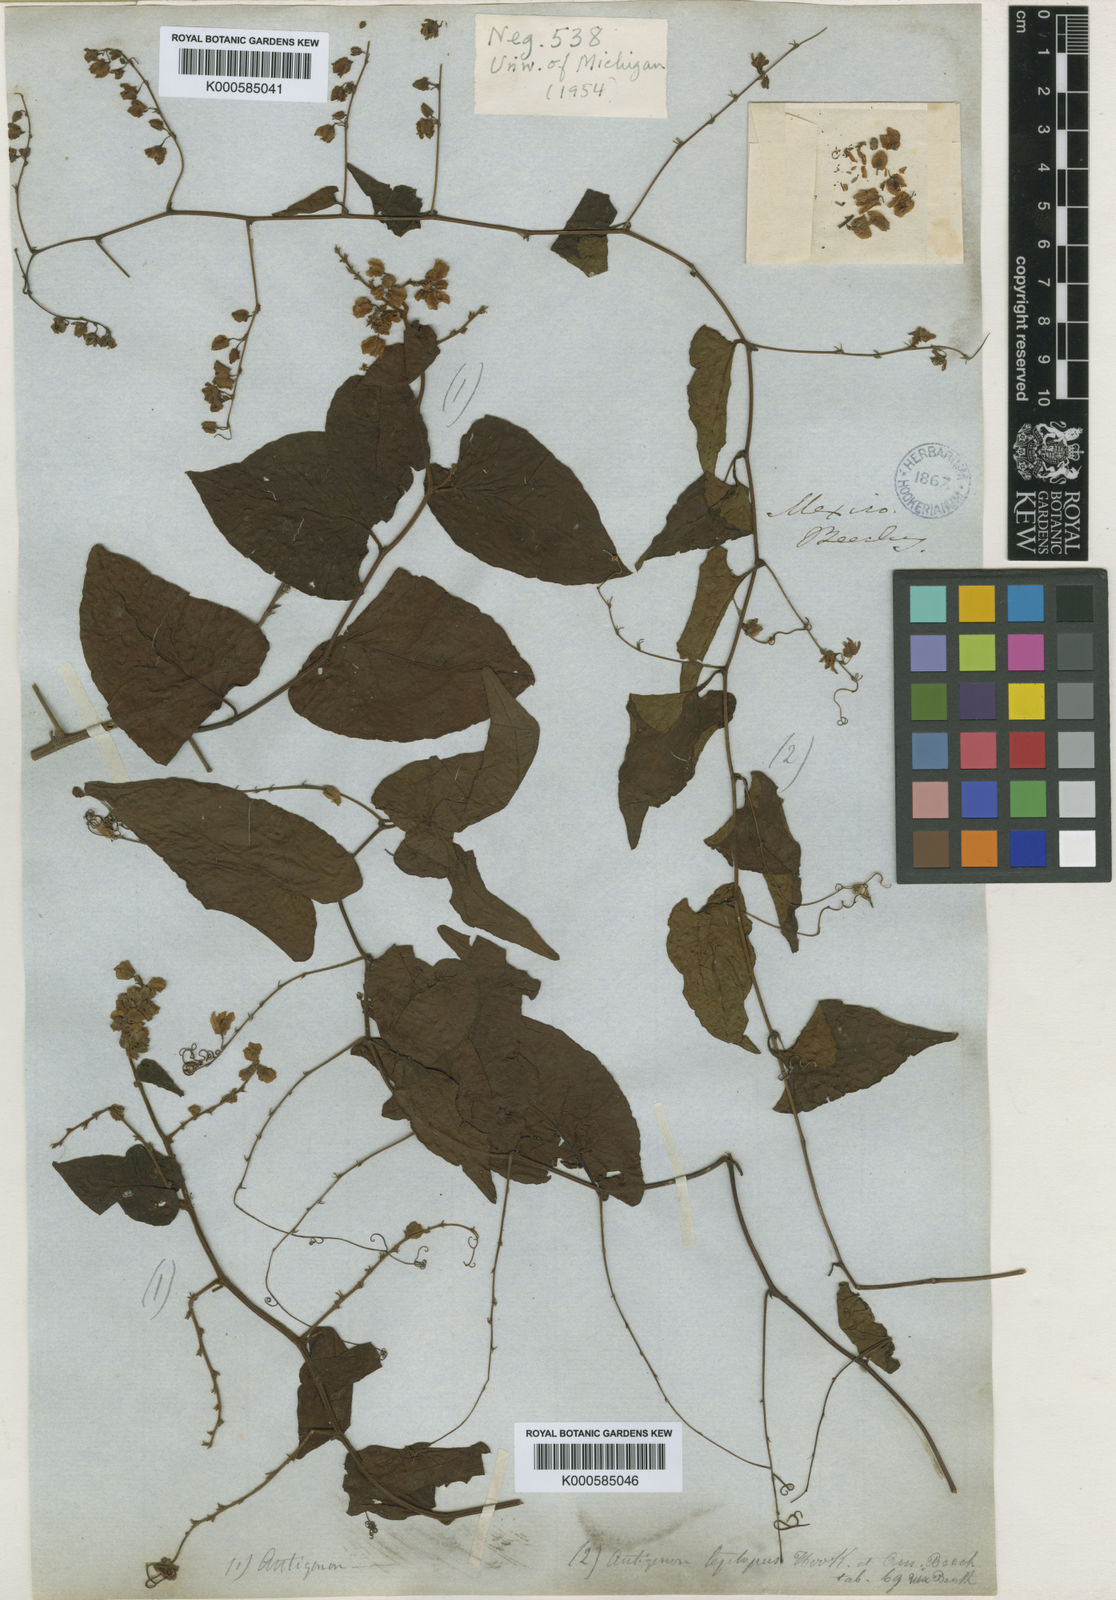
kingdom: Plantae
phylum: Tracheophyta
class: Magnoliopsida
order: Caryophyllales
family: Polygonaceae
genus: Antigonon
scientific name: Antigonon leptopus
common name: Coral vine
